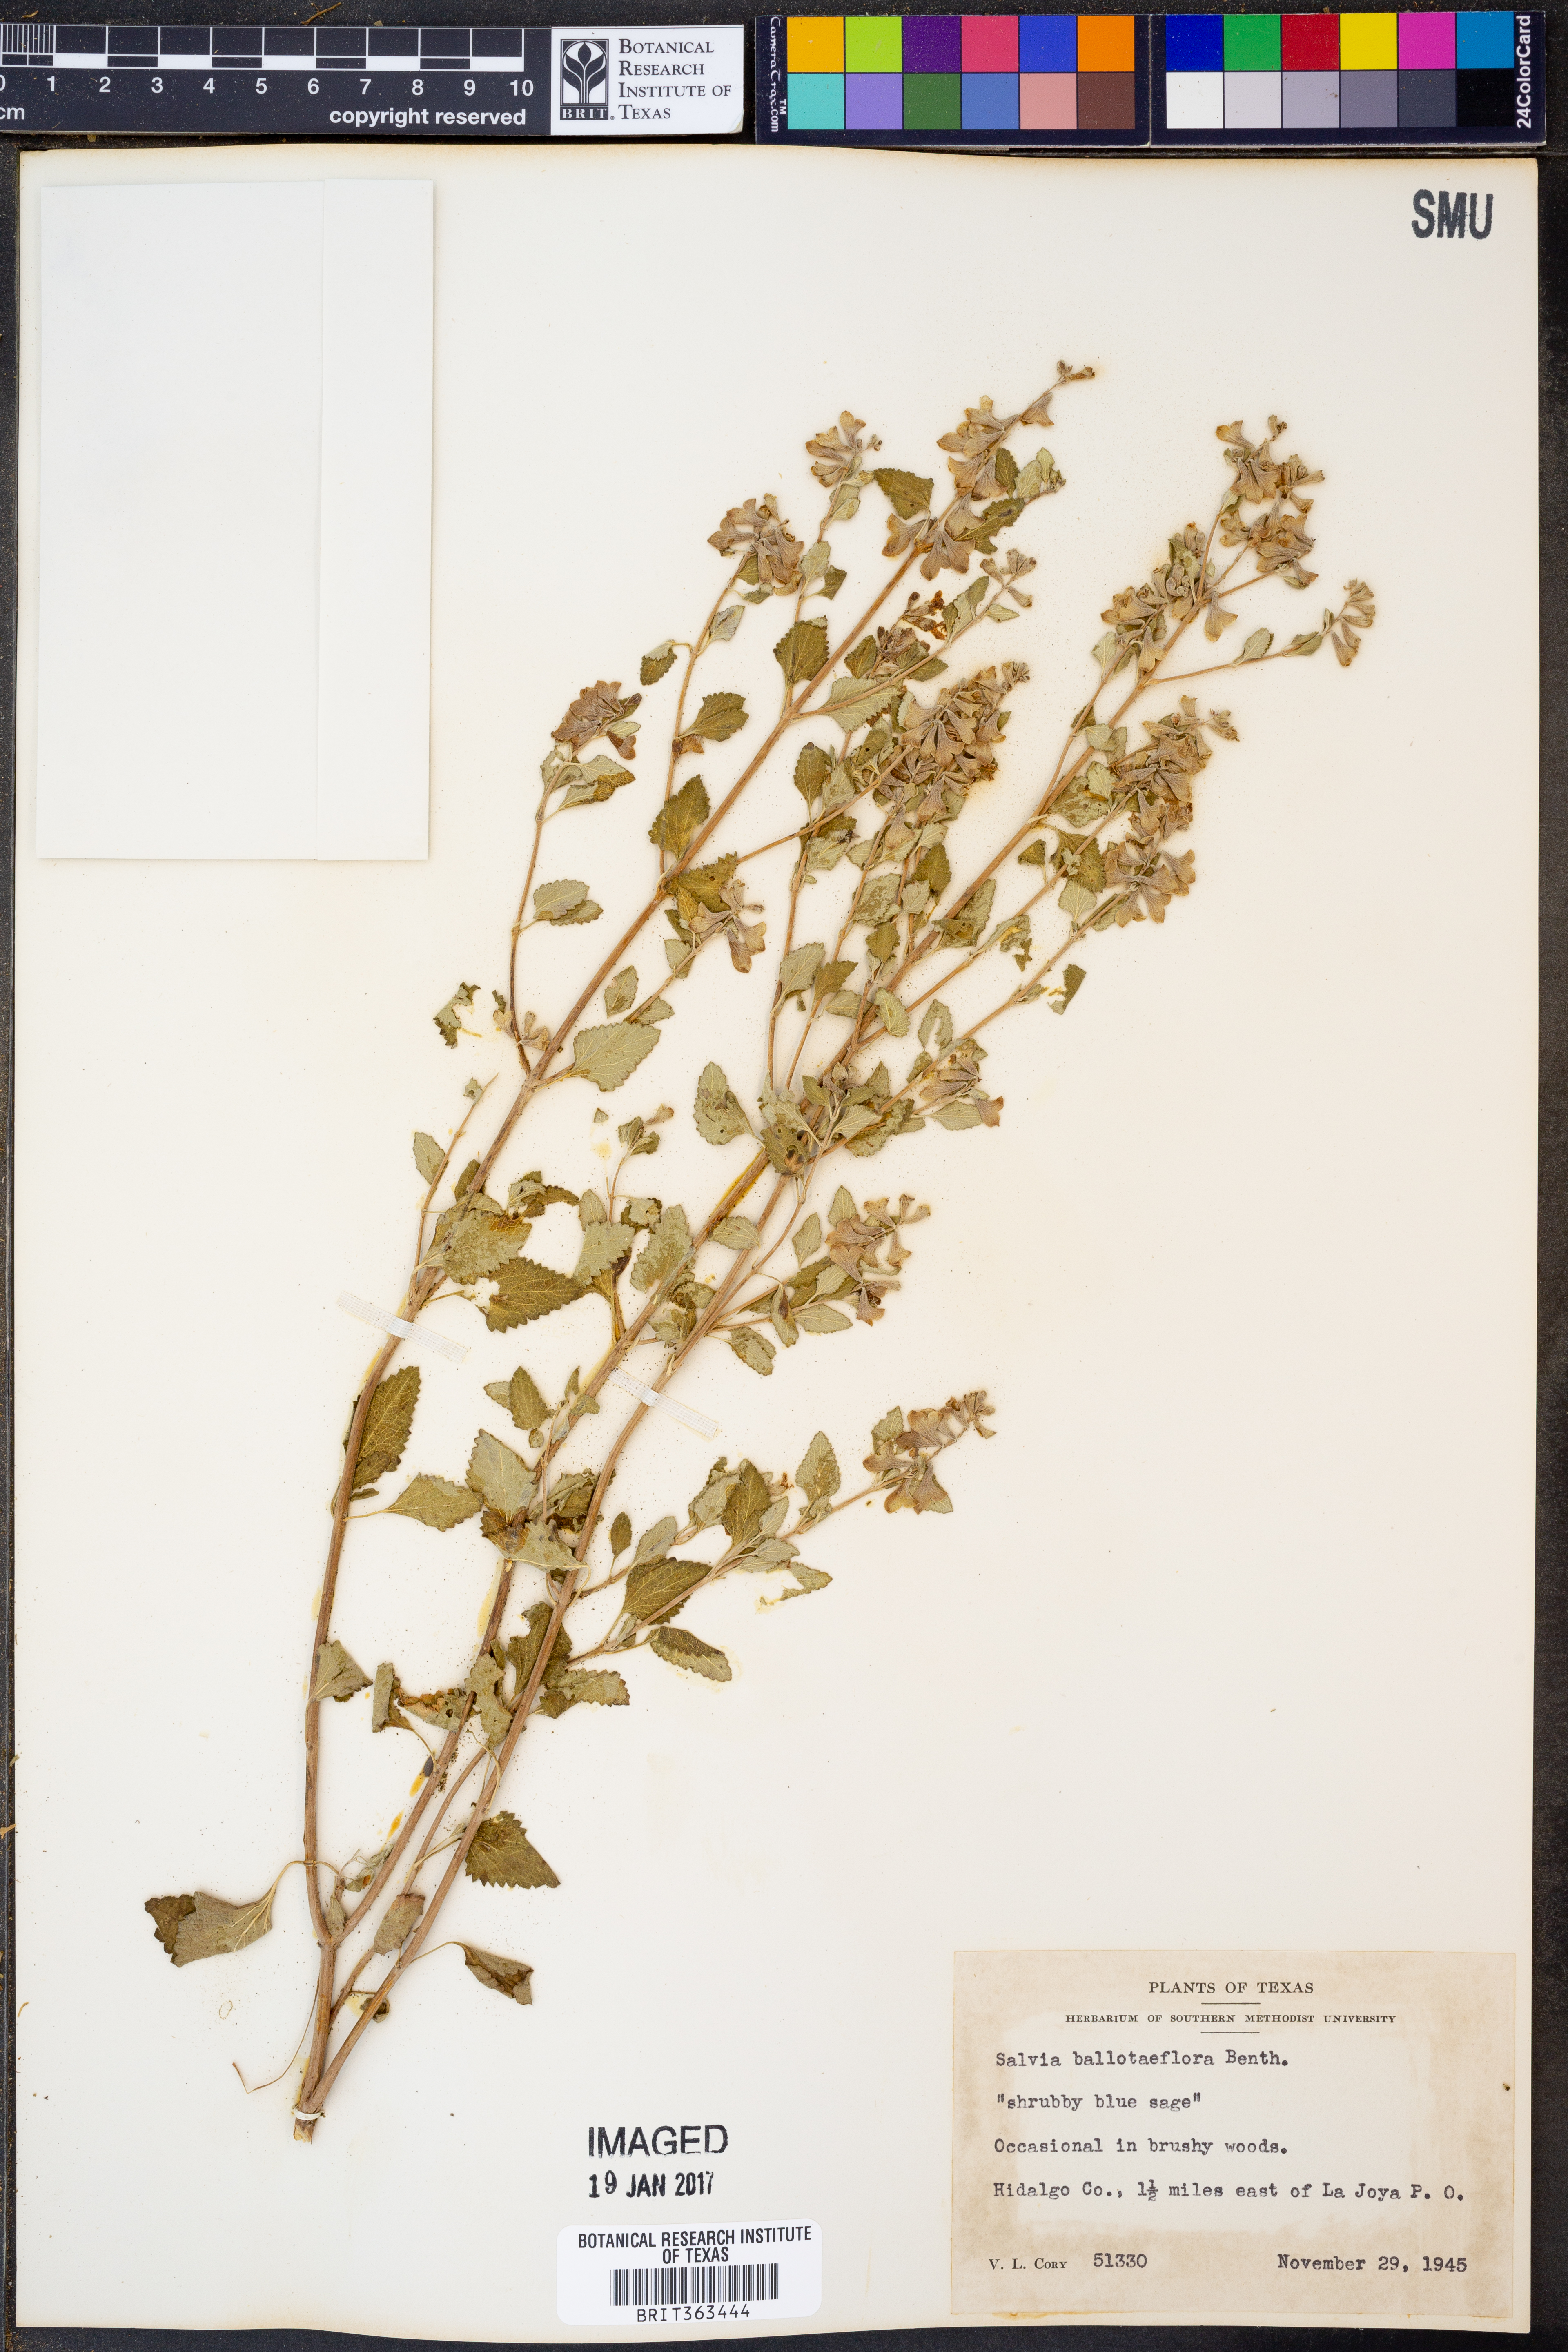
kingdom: Plantae
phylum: Tracheophyta
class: Magnoliopsida
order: Lamiales
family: Lamiaceae
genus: Salvia
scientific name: Salvia ballotiflora
